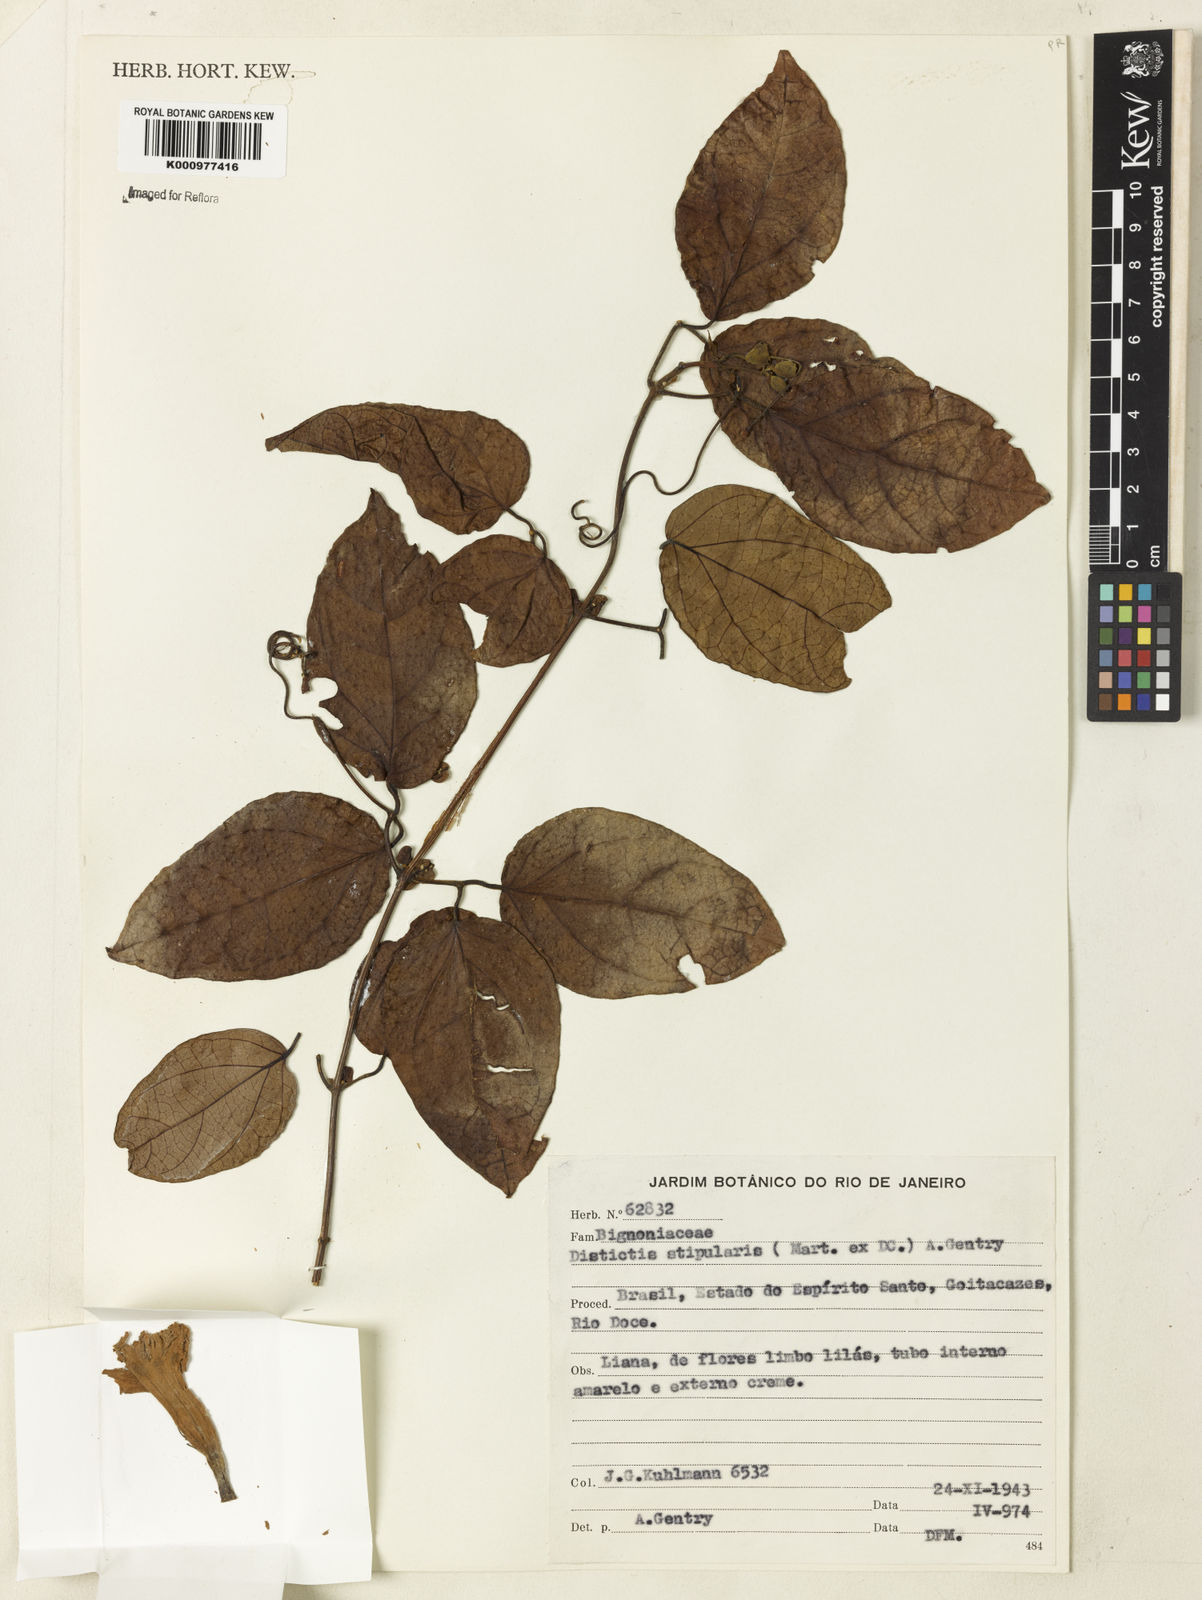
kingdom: Plantae
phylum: Tracheophyta
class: Magnoliopsida
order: Lamiales
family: Bignoniaceae
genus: Amphilophium
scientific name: Amphilophium frutescens
